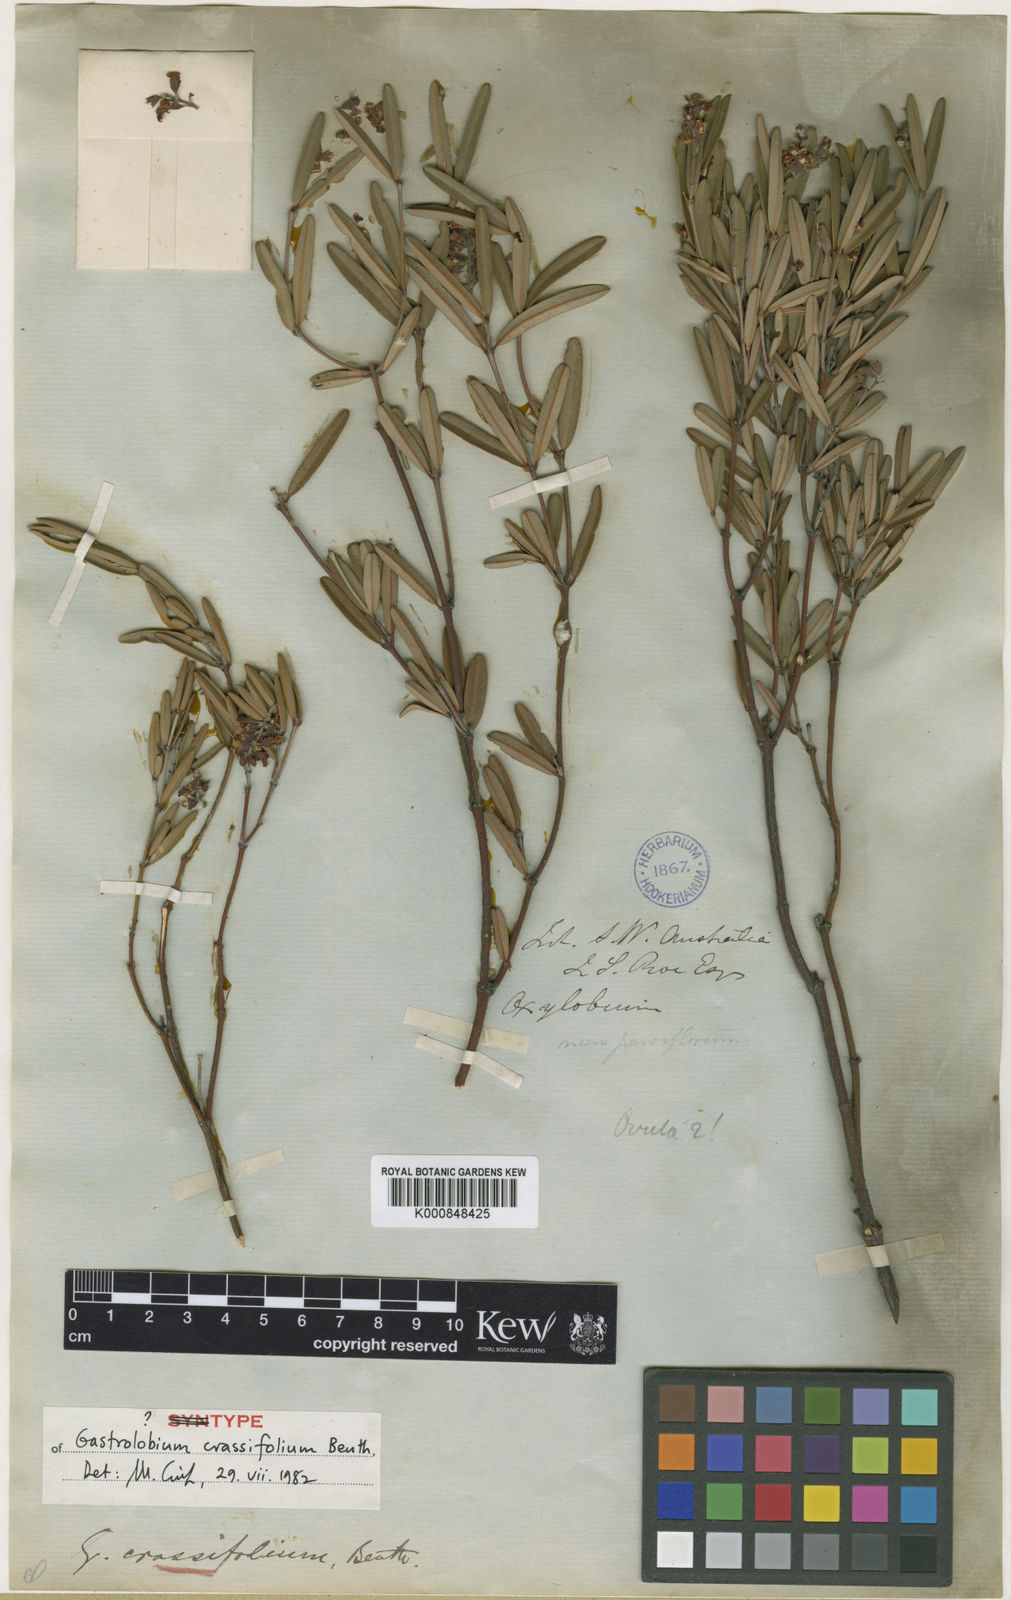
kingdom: Plantae
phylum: Tracheophyta
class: Magnoliopsida
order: Fabales
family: Fabaceae
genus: Gastrolobium
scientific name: Gastrolobium crassifolium
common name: Thick-leaf poison
